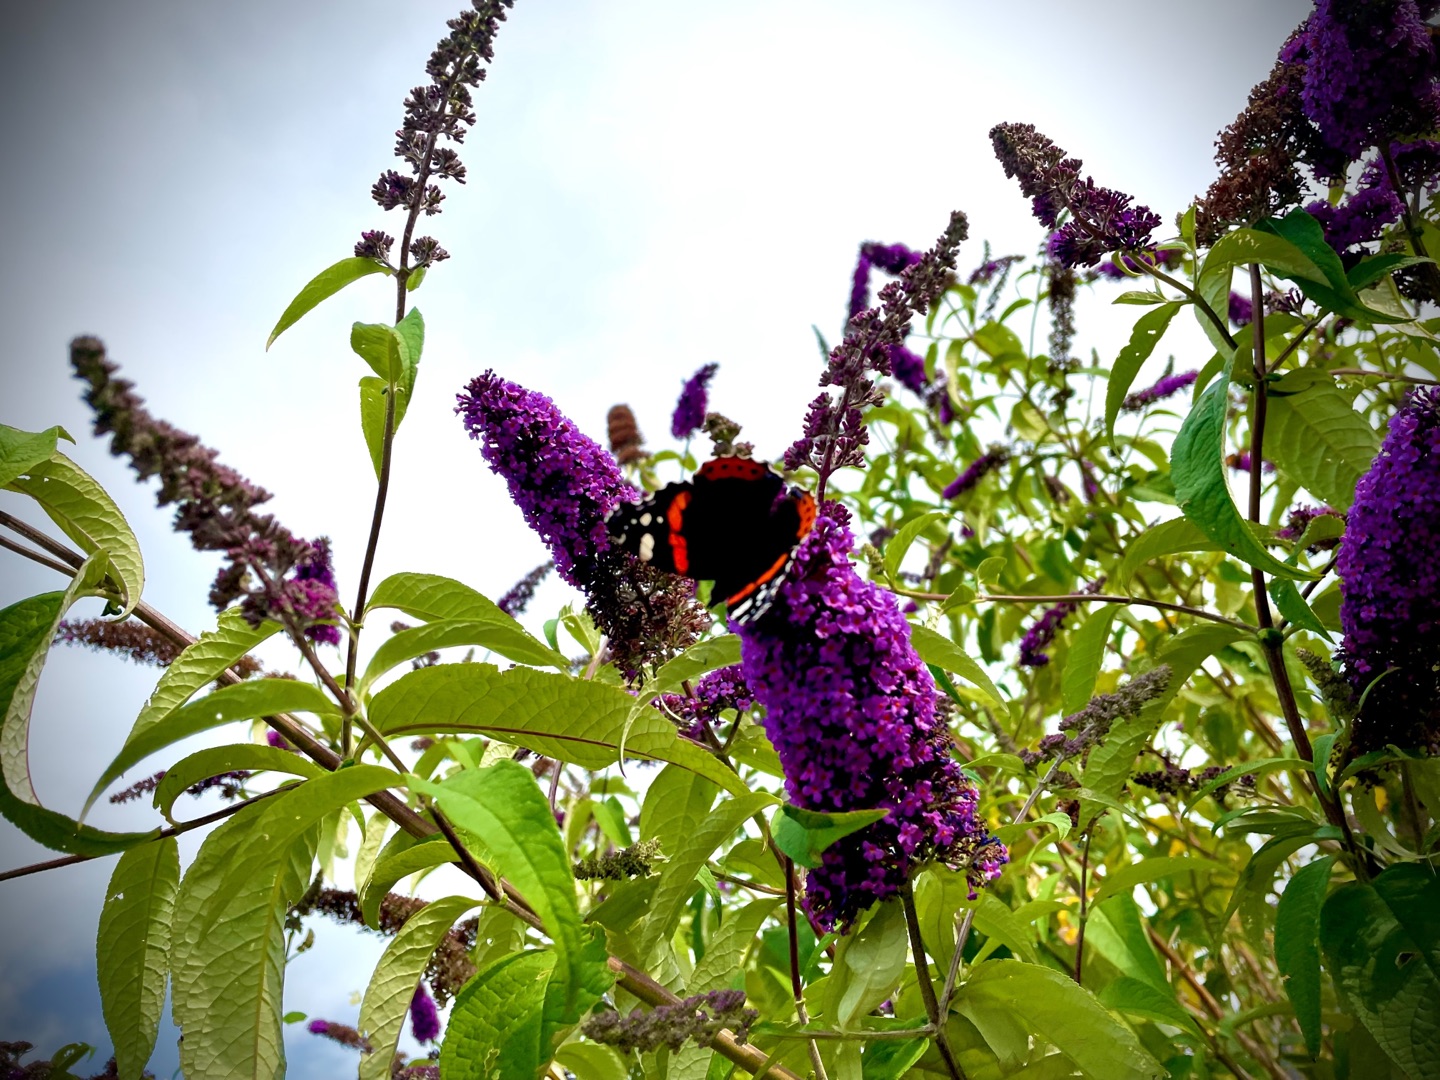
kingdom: Animalia
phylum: Arthropoda
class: Insecta
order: Lepidoptera
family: Nymphalidae
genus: Vanessa
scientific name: Vanessa atalanta
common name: Admiral
